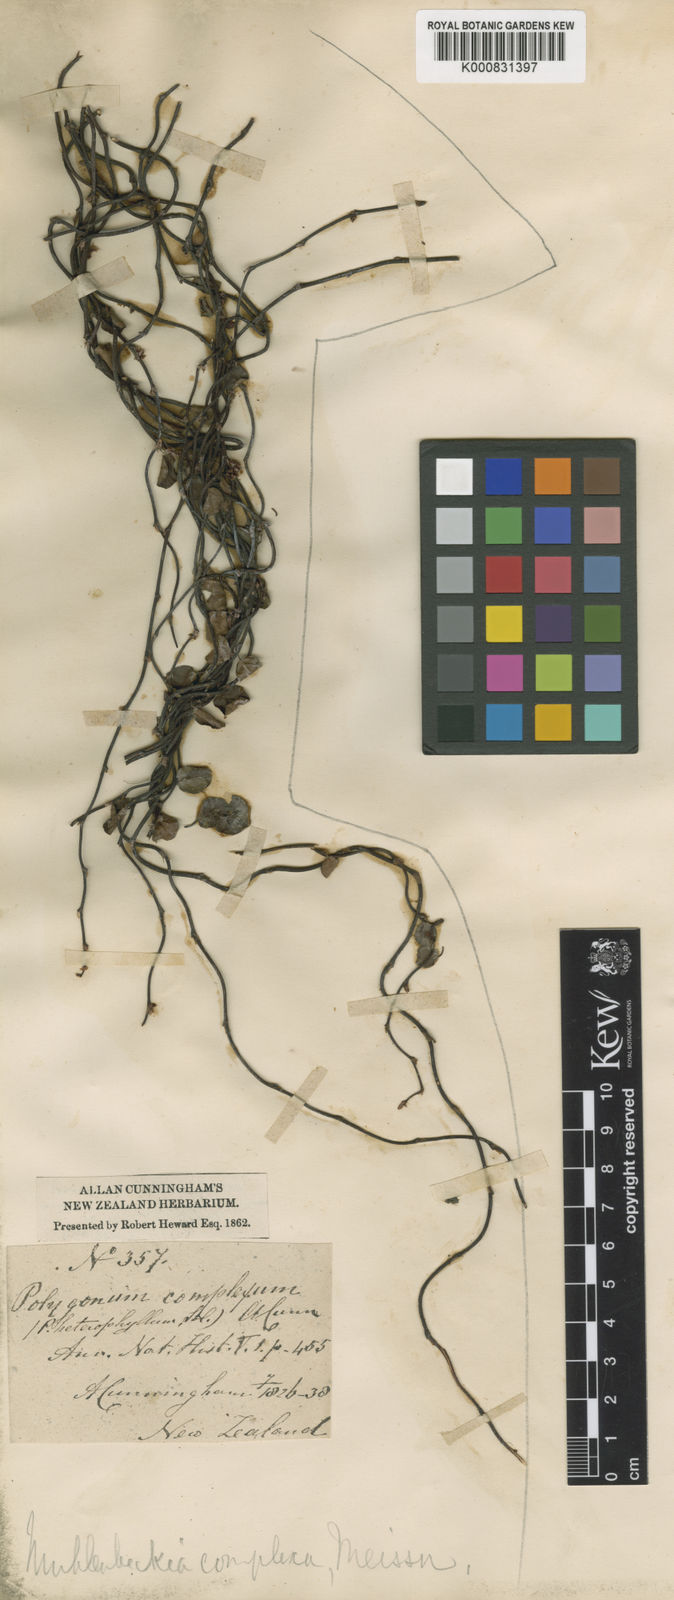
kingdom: Plantae
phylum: Tracheophyta
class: Magnoliopsida
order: Caryophyllales
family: Polygonaceae
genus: Muehlenbeckia
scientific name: Muehlenbeckia complexa
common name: Wireplant
